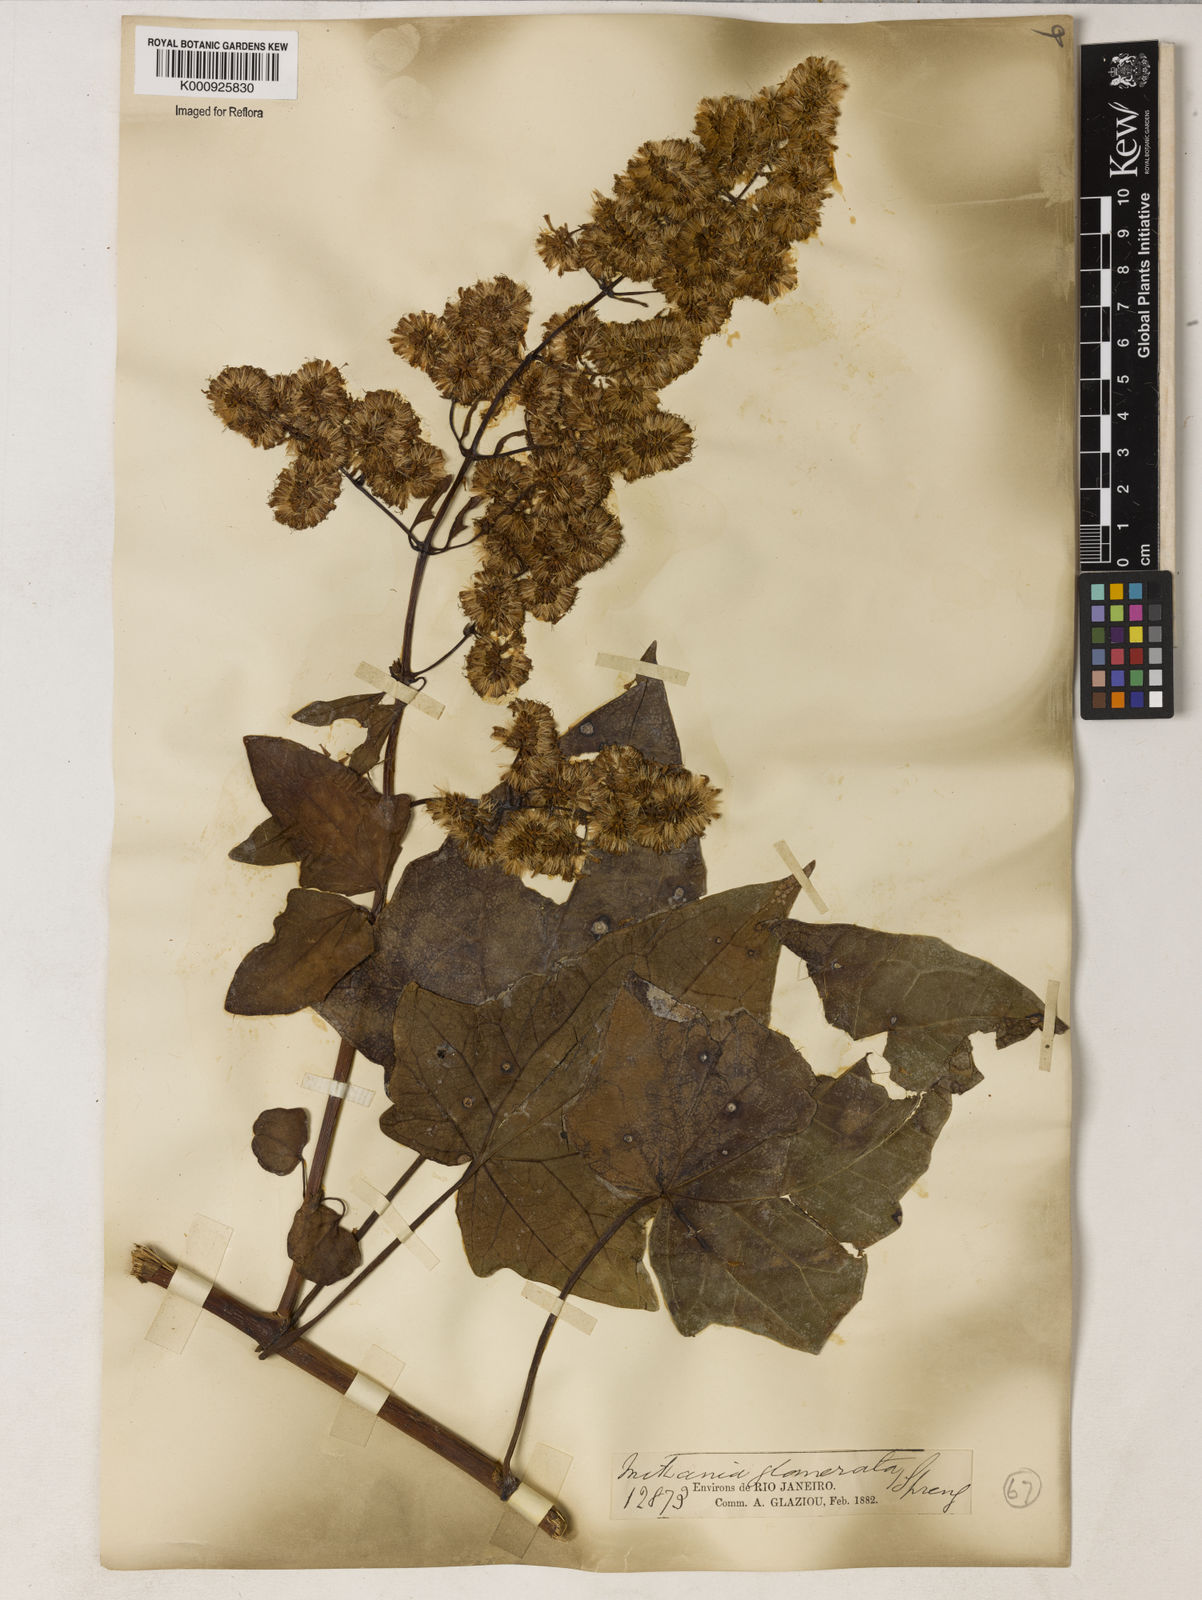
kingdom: Plantae
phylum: Tracheophyta
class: Magnoliopsida
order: Asterales
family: Asteraceae
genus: Mikania
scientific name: Mikania glomerata
